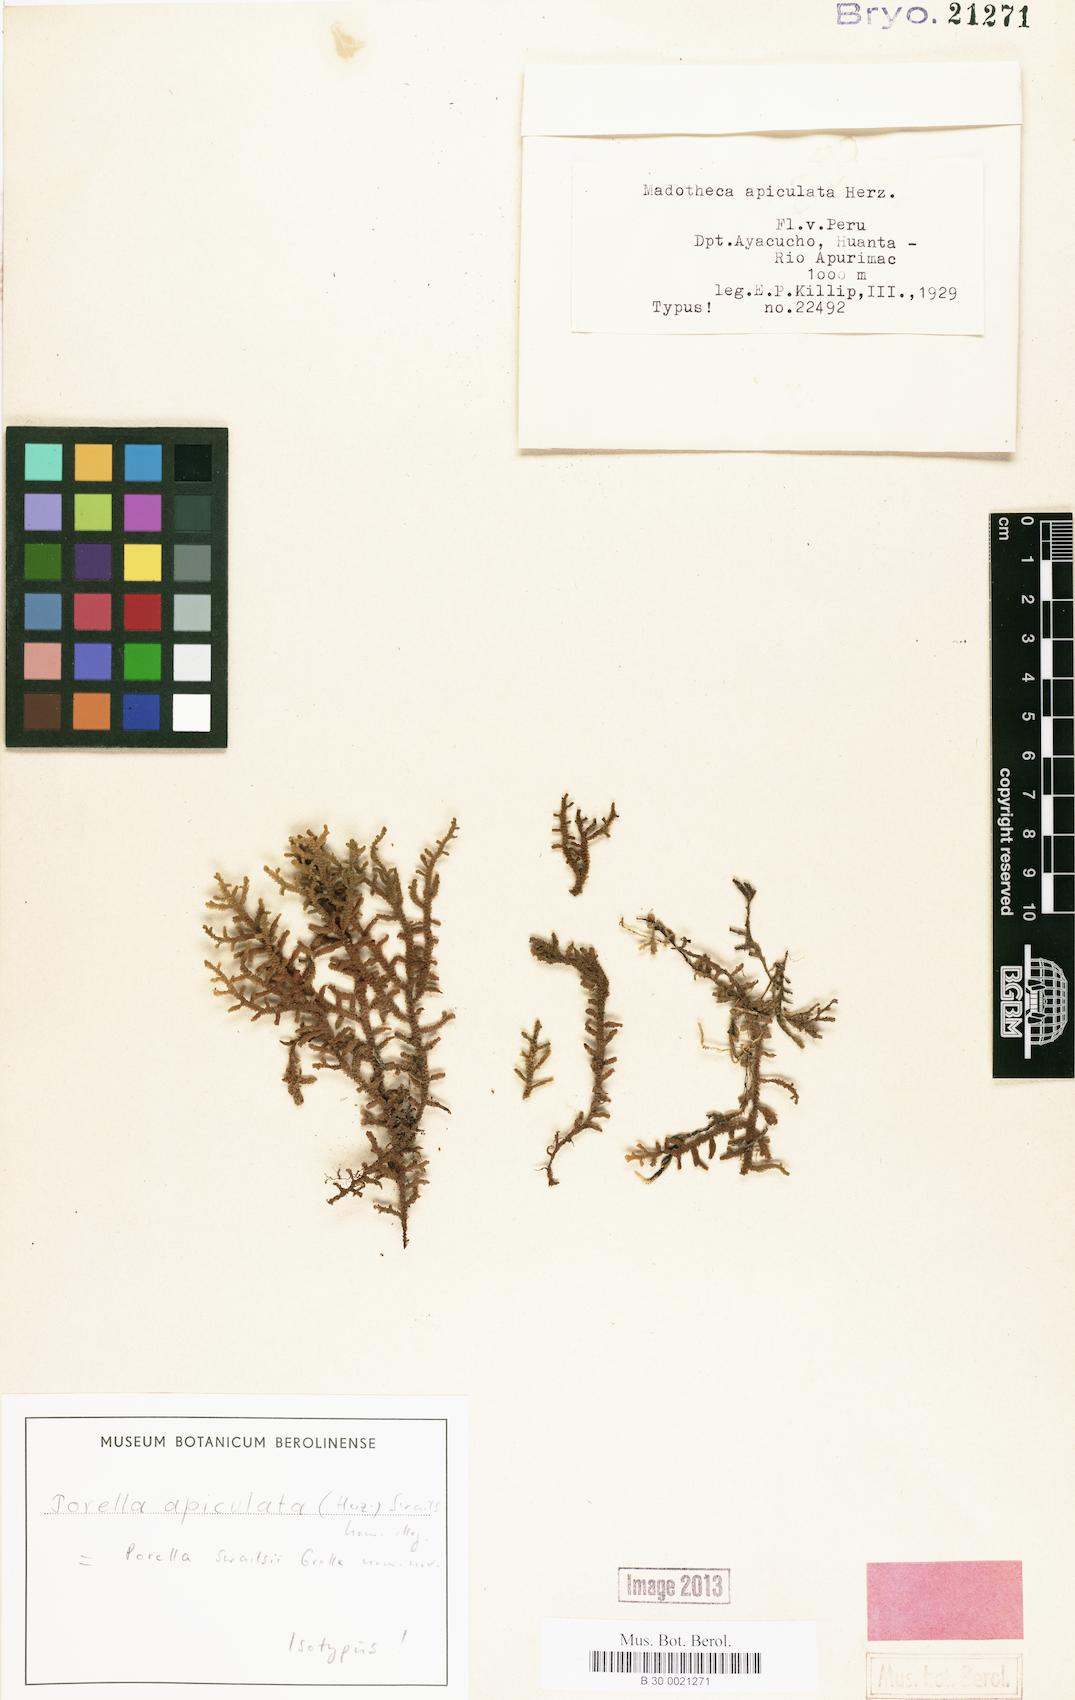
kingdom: Plantae
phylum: Marchantiophyta
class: Jungermanniopsida
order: Porellales
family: Porellaceae
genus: Porella
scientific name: Porella swailsii
